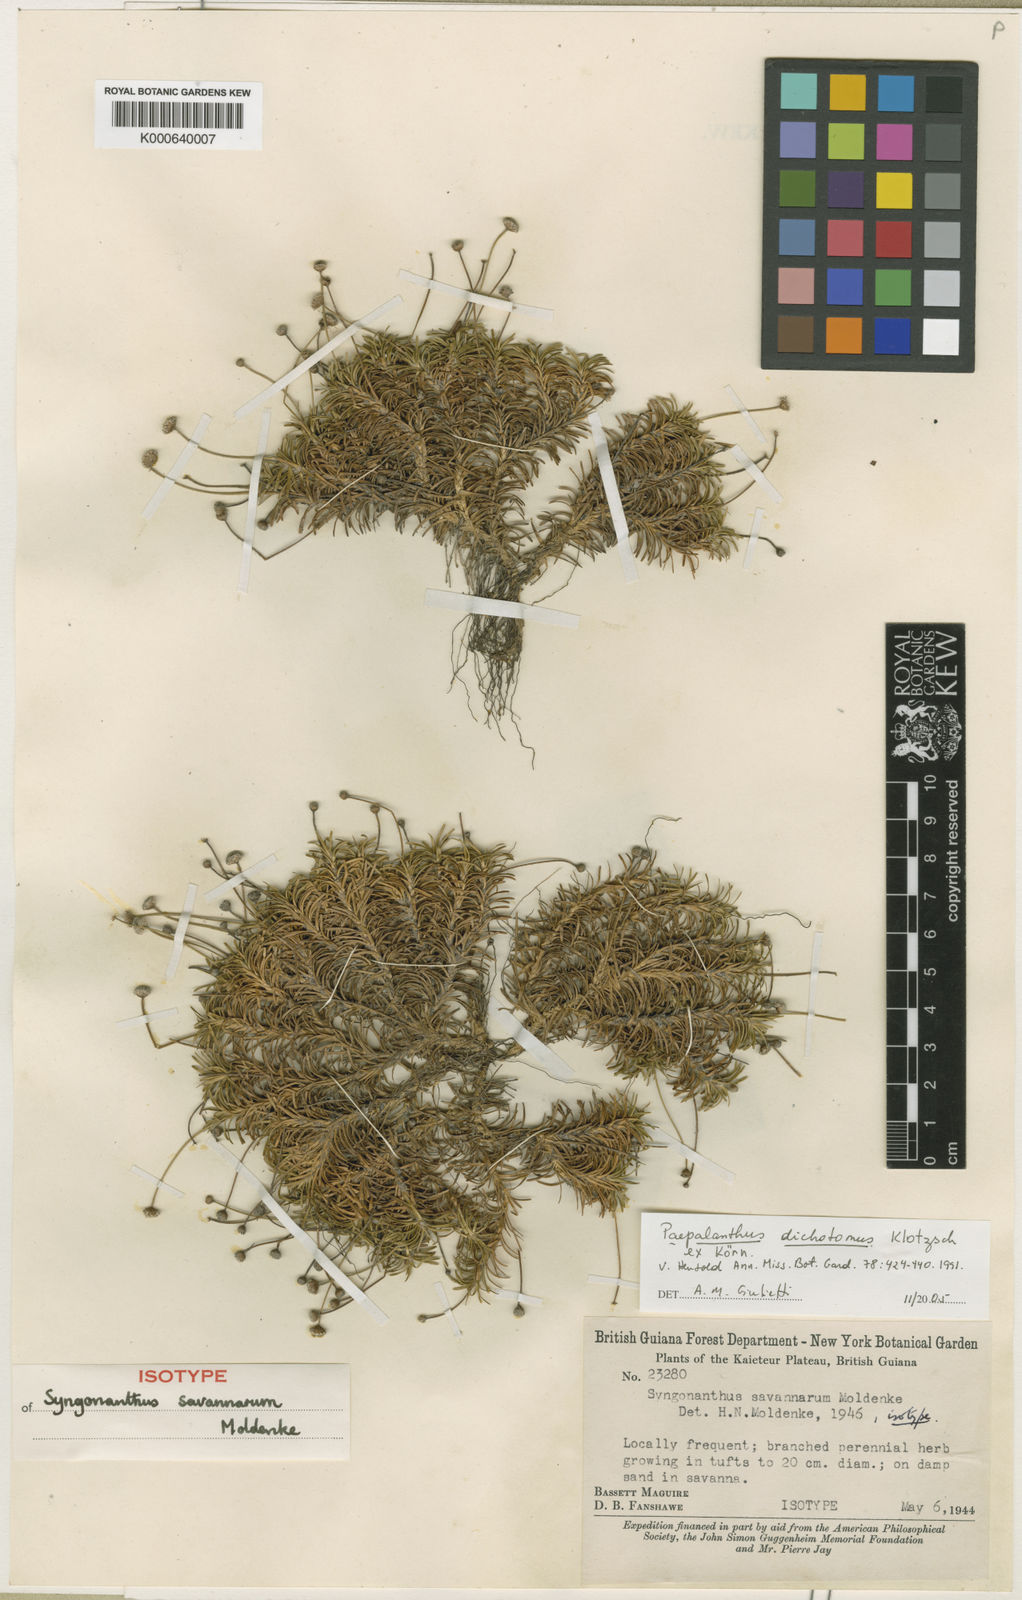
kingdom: Plantae
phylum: Tracheophyta
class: Liliopsida
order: Poales
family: Eriocaulaceae
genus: Paepalanthus
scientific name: Paepalanthus
